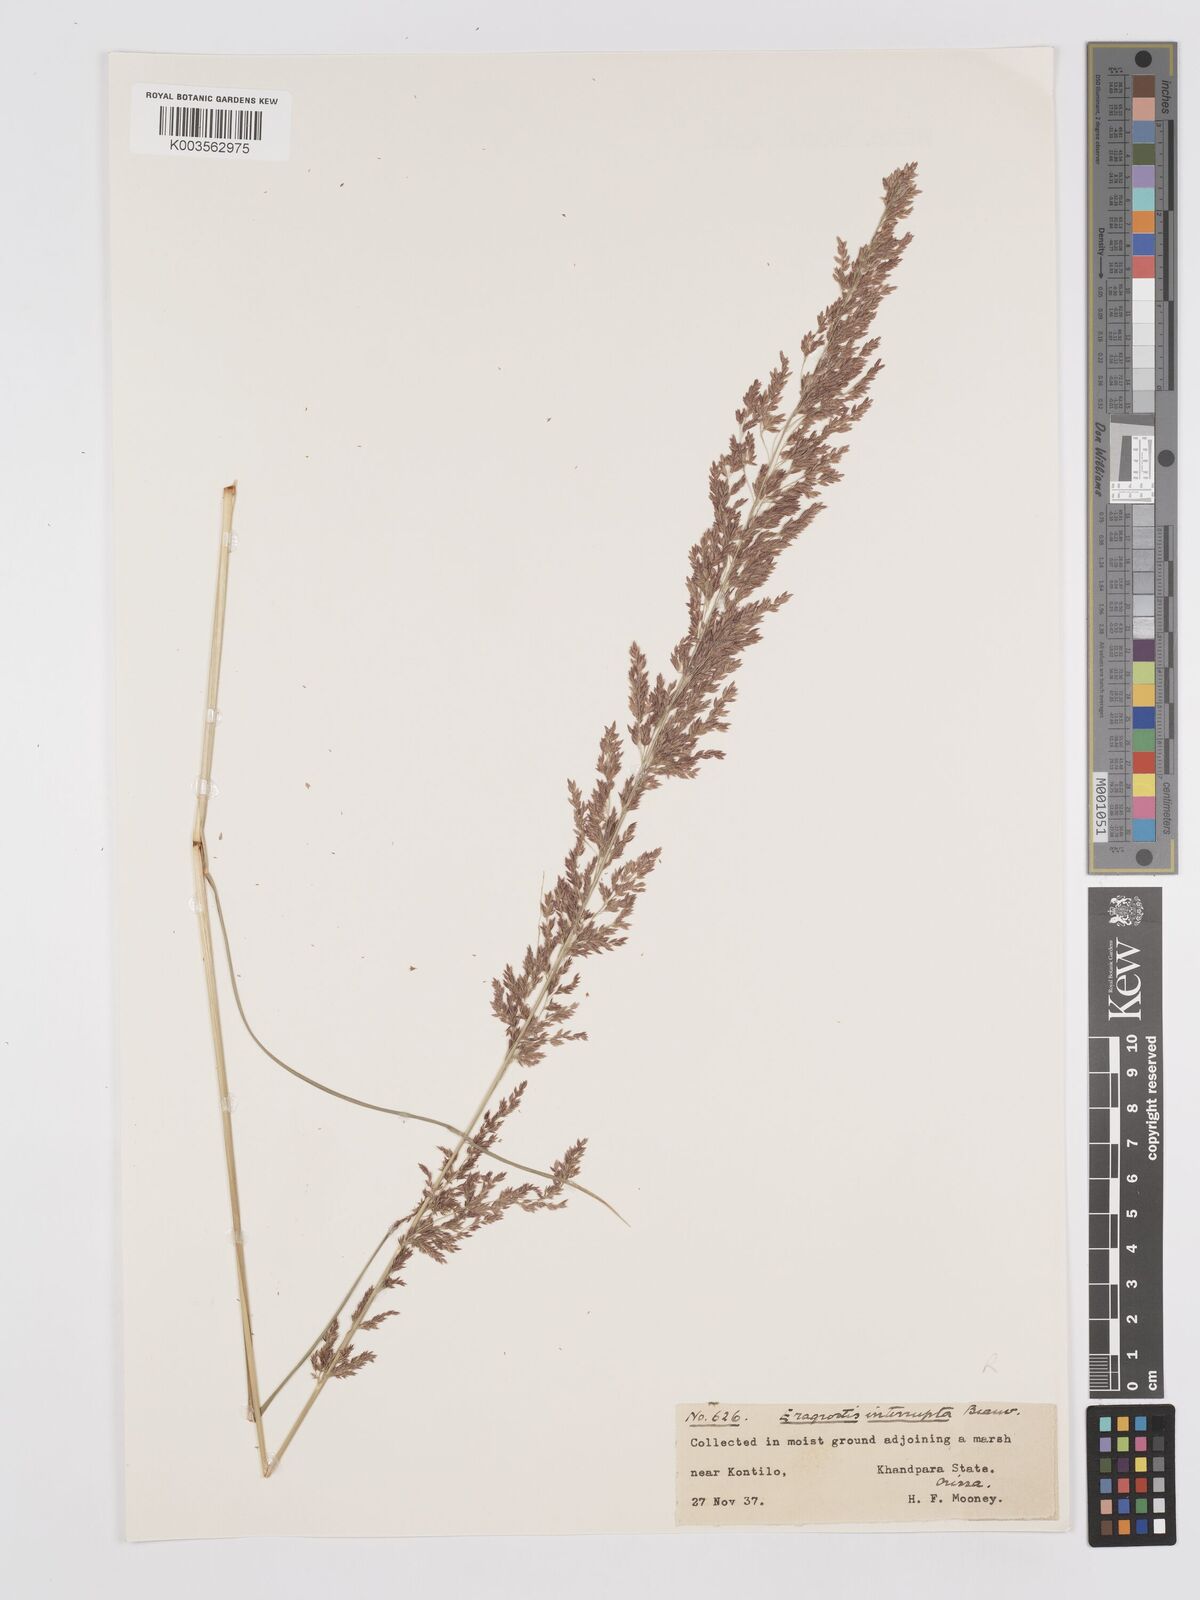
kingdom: Plantae
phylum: Tracheophyta
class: Liliopsida
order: Poales
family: Poaceae
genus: Eragrostis
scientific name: Eragrostis japonica
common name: Pond lovegrass
